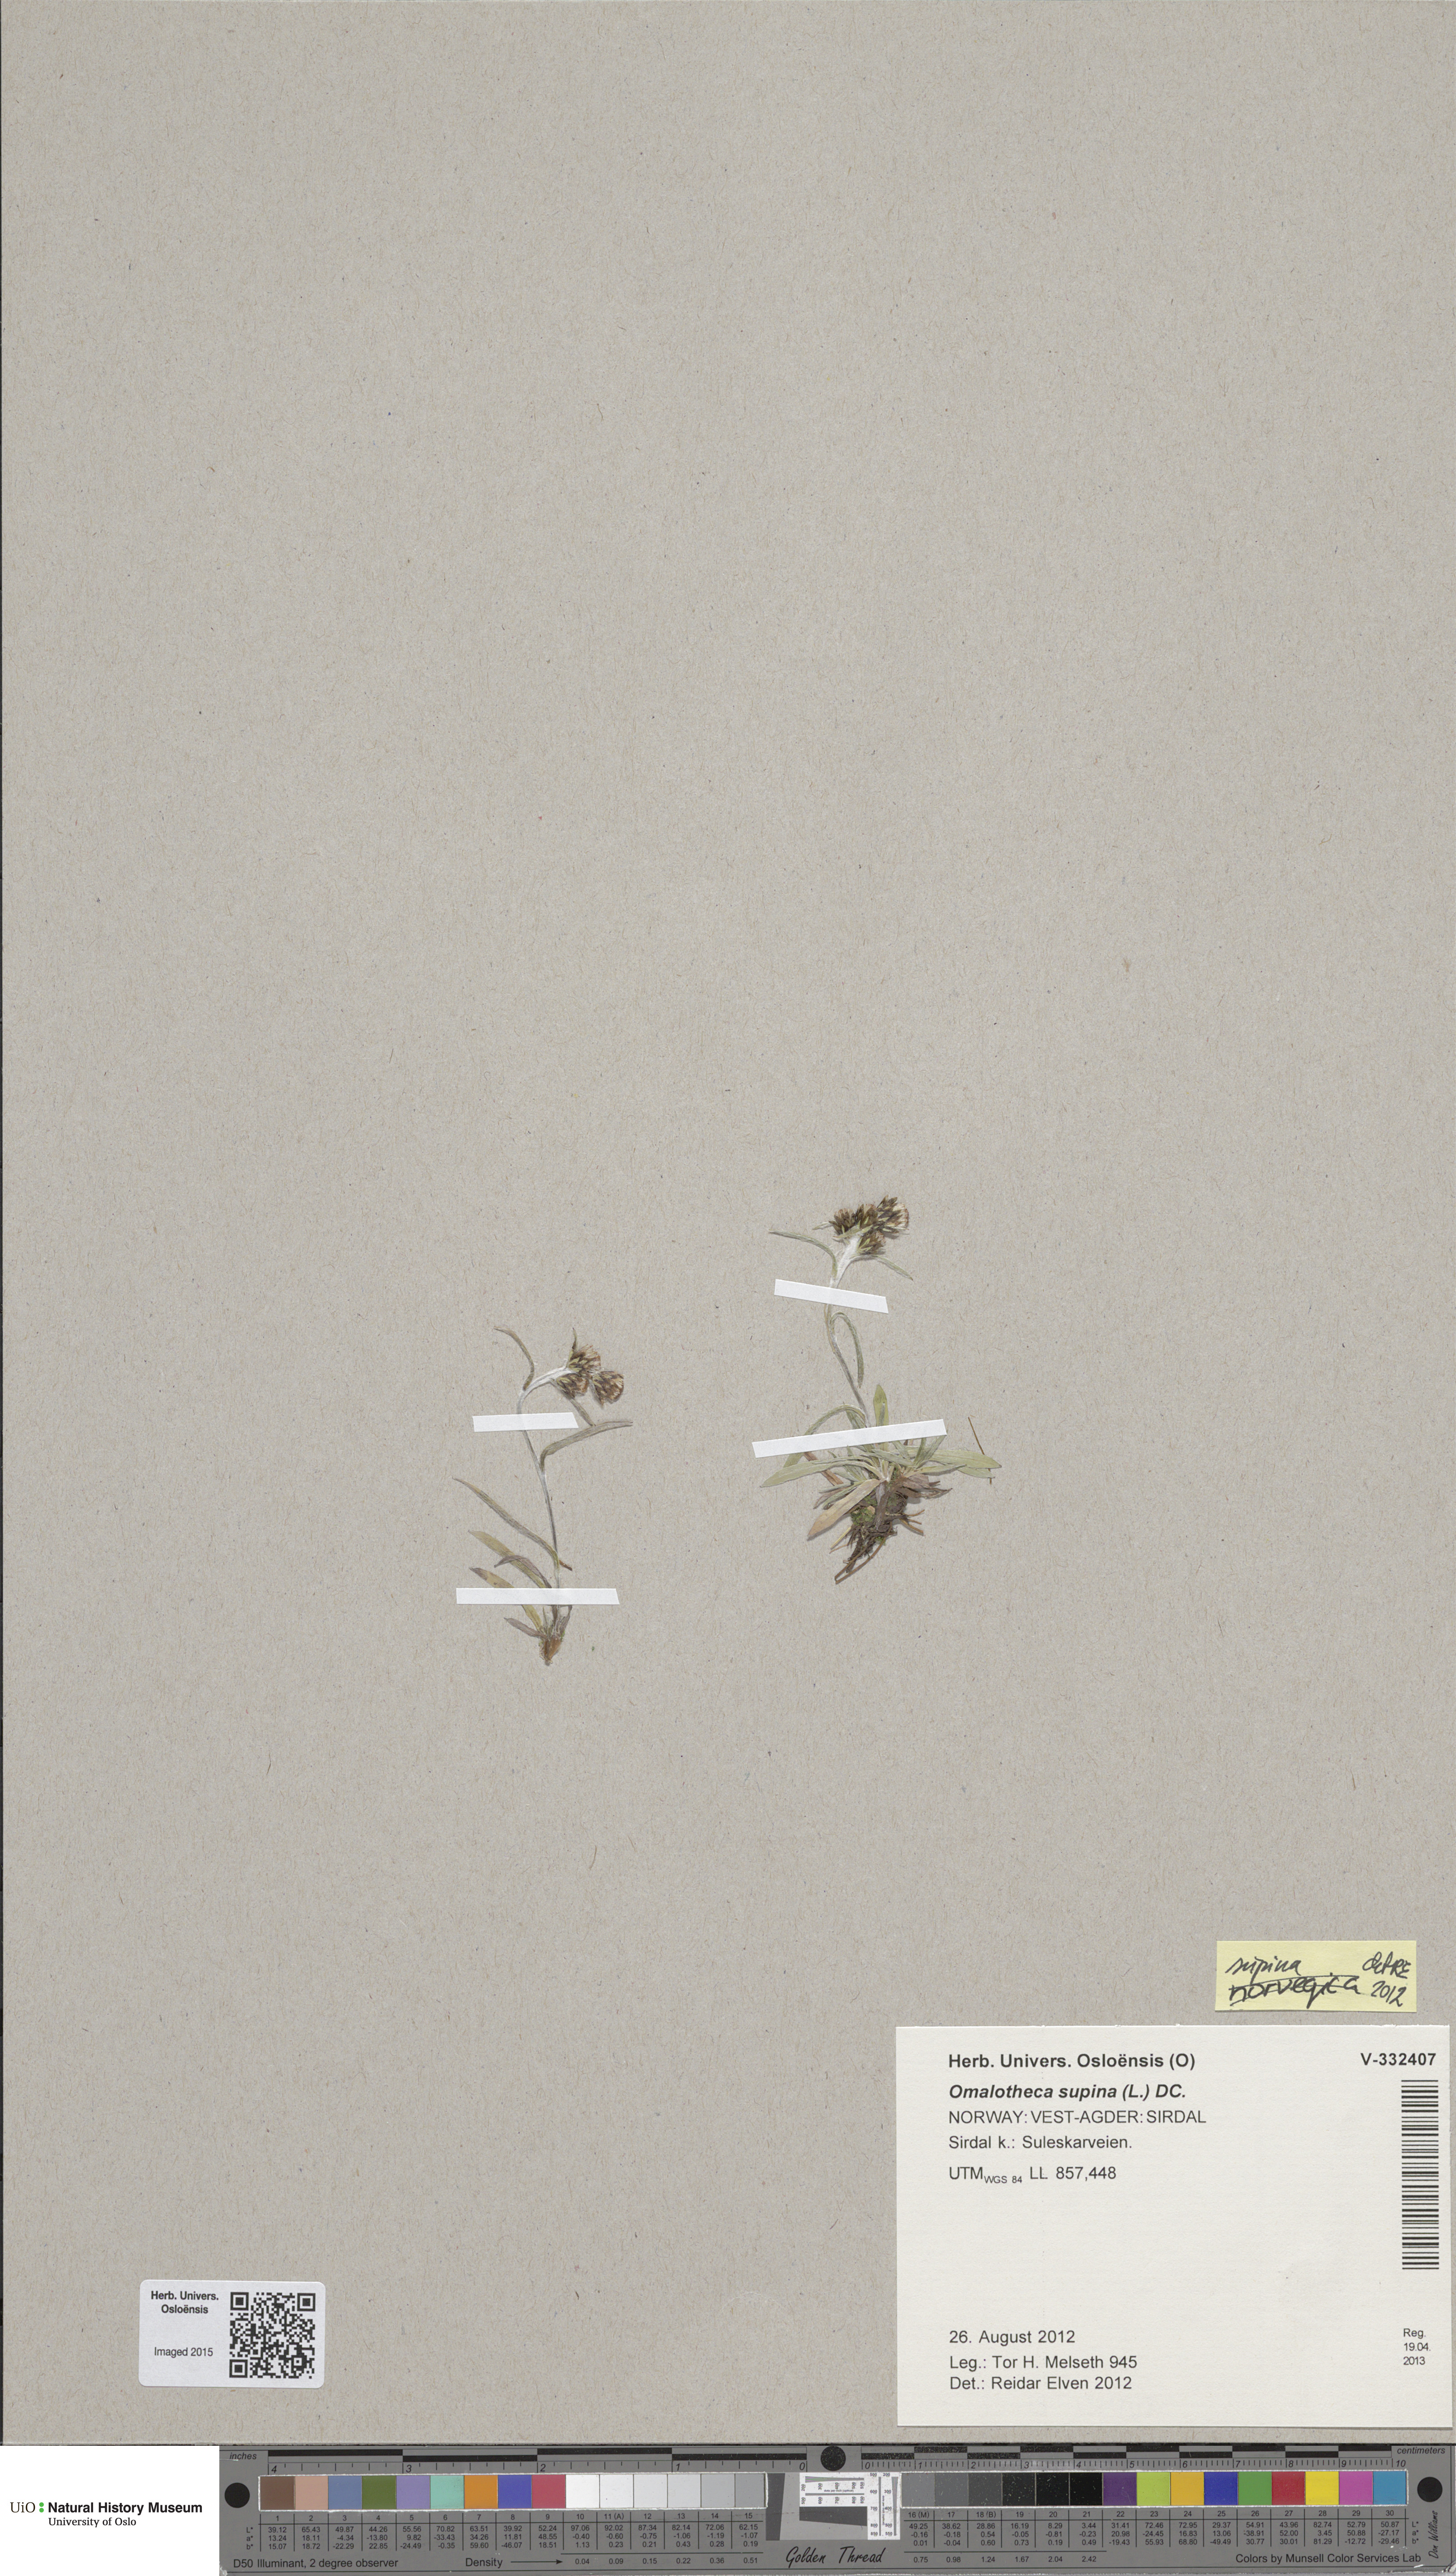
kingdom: Plantae
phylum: Tracheophyta
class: Magnoliopsida
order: Asterales
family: Asteraceae
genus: Omalotheca
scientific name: Omalotheca supina
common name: Alpine arctic-cudweed
